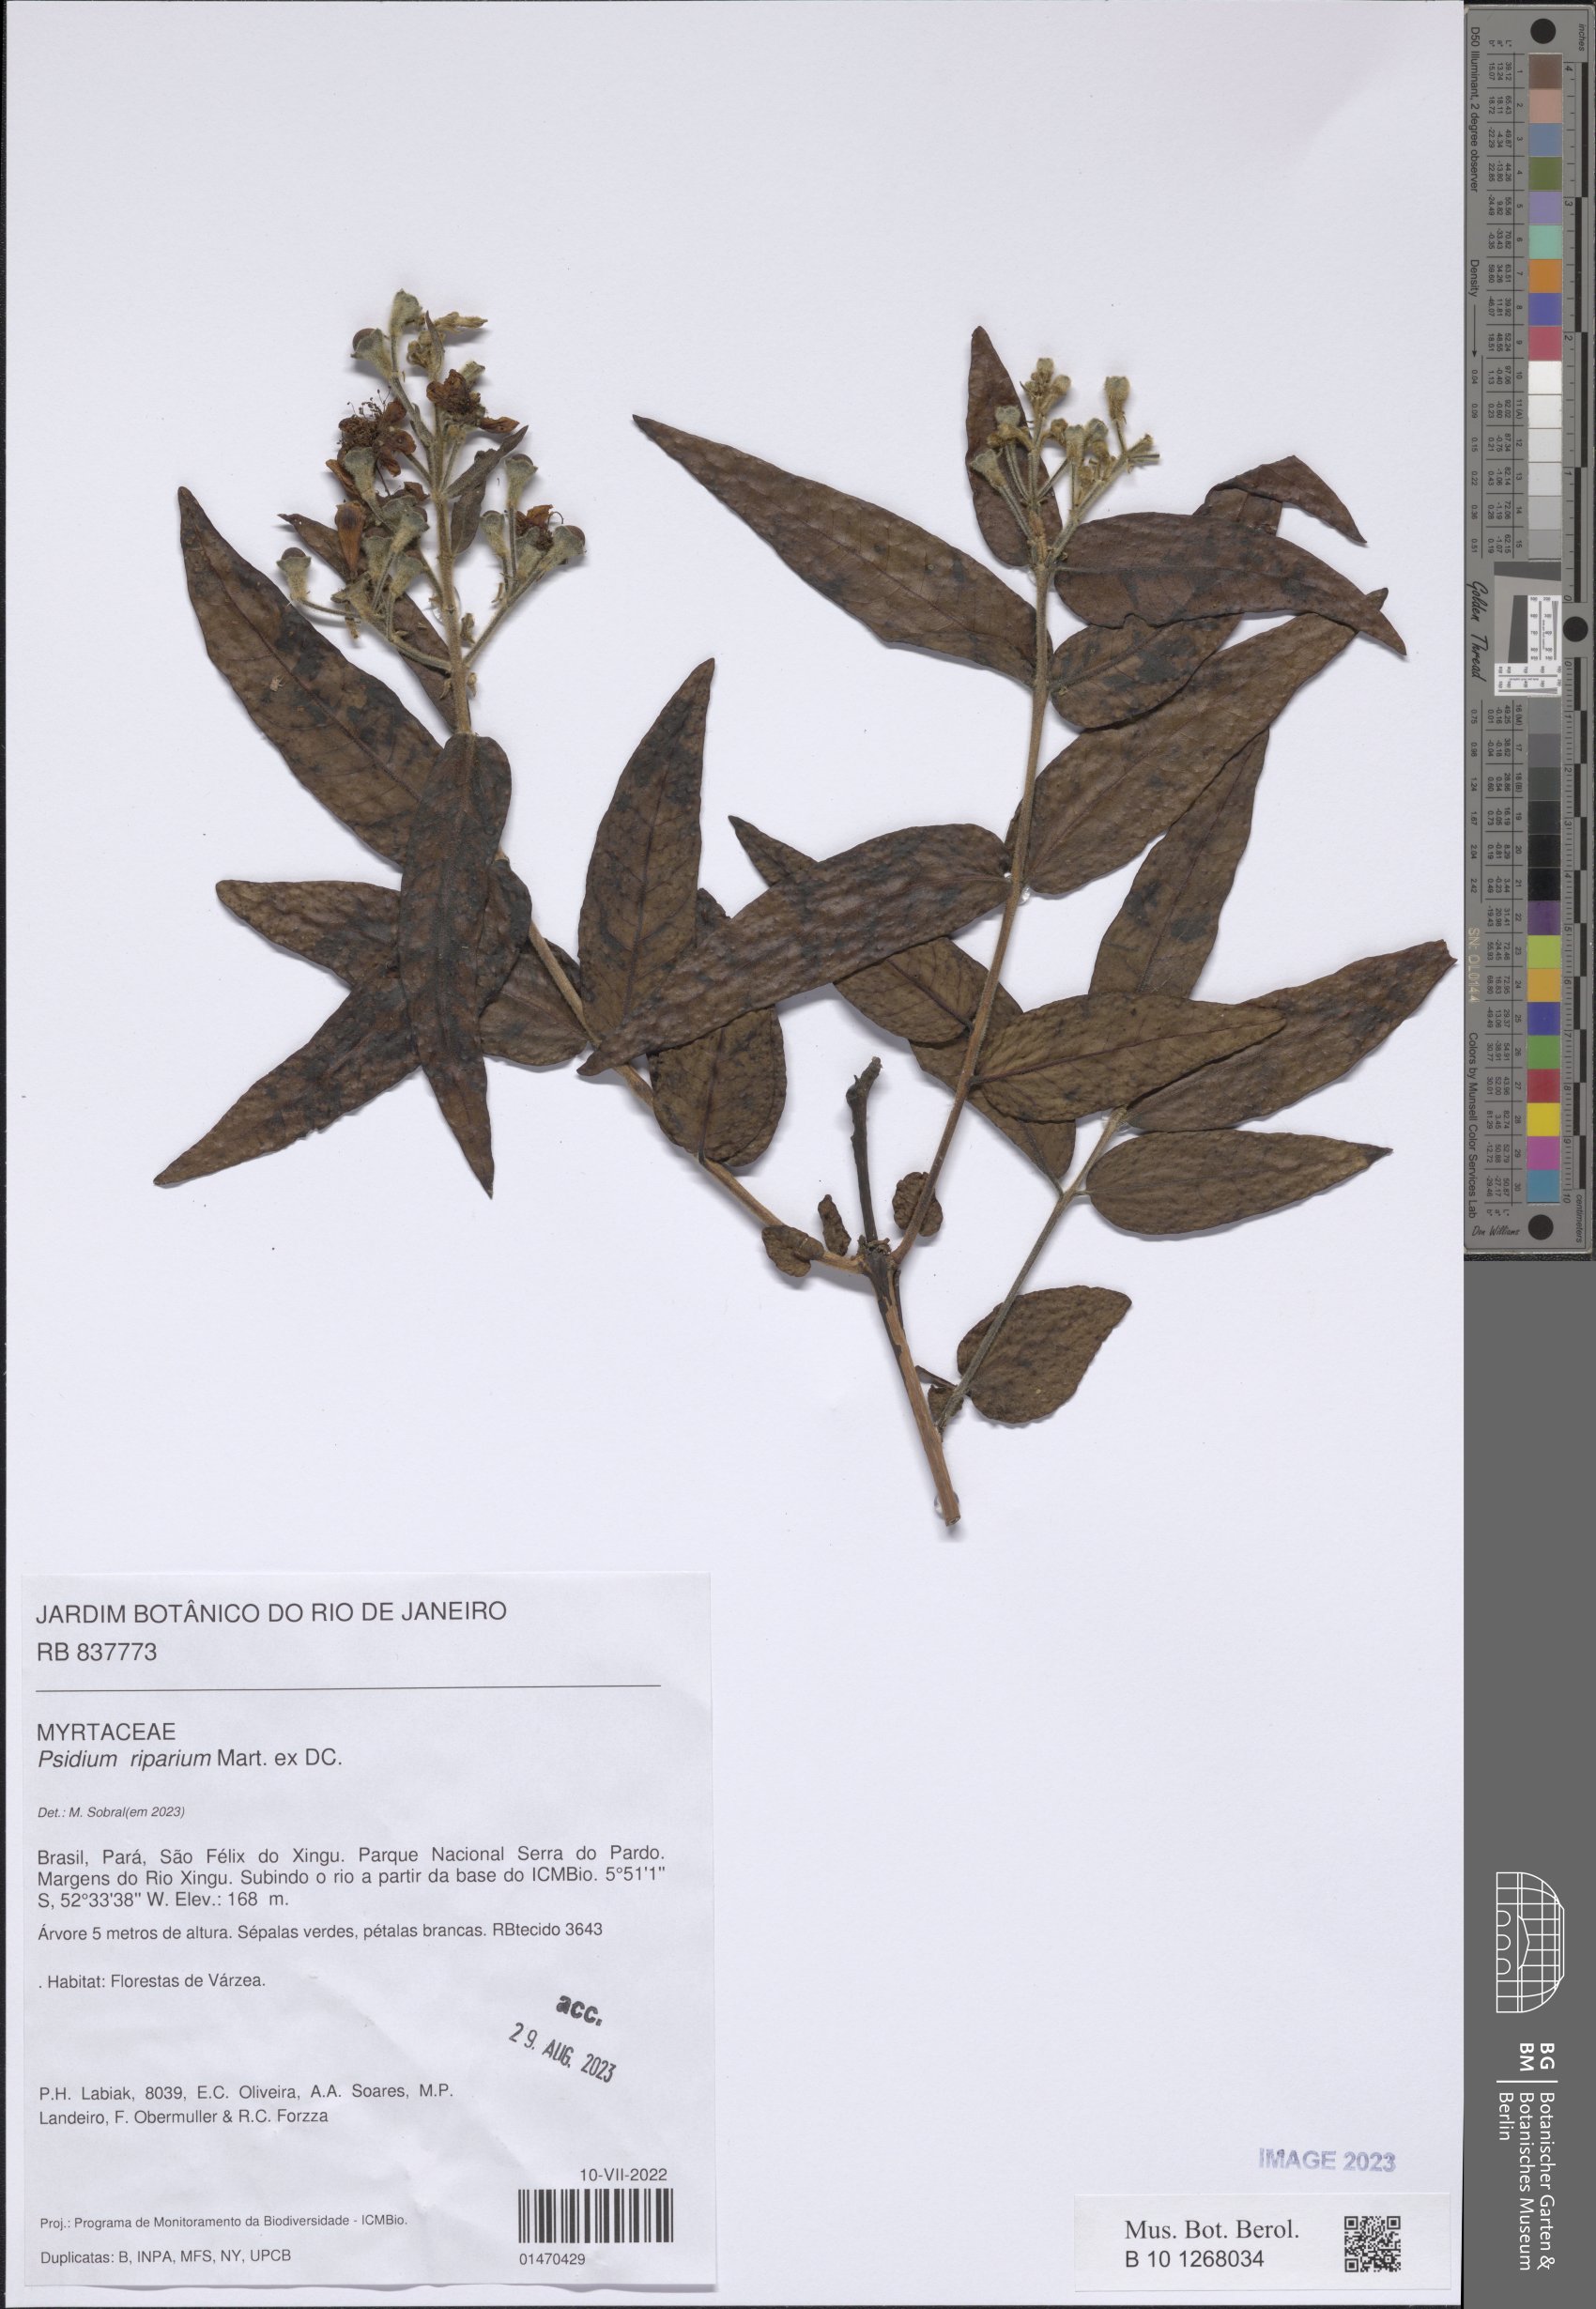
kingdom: Plantae
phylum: Tracheophyta
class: Magnoliopsida
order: Myrtales
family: Myrtaceae
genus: Psidium
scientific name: Psidium riparium
